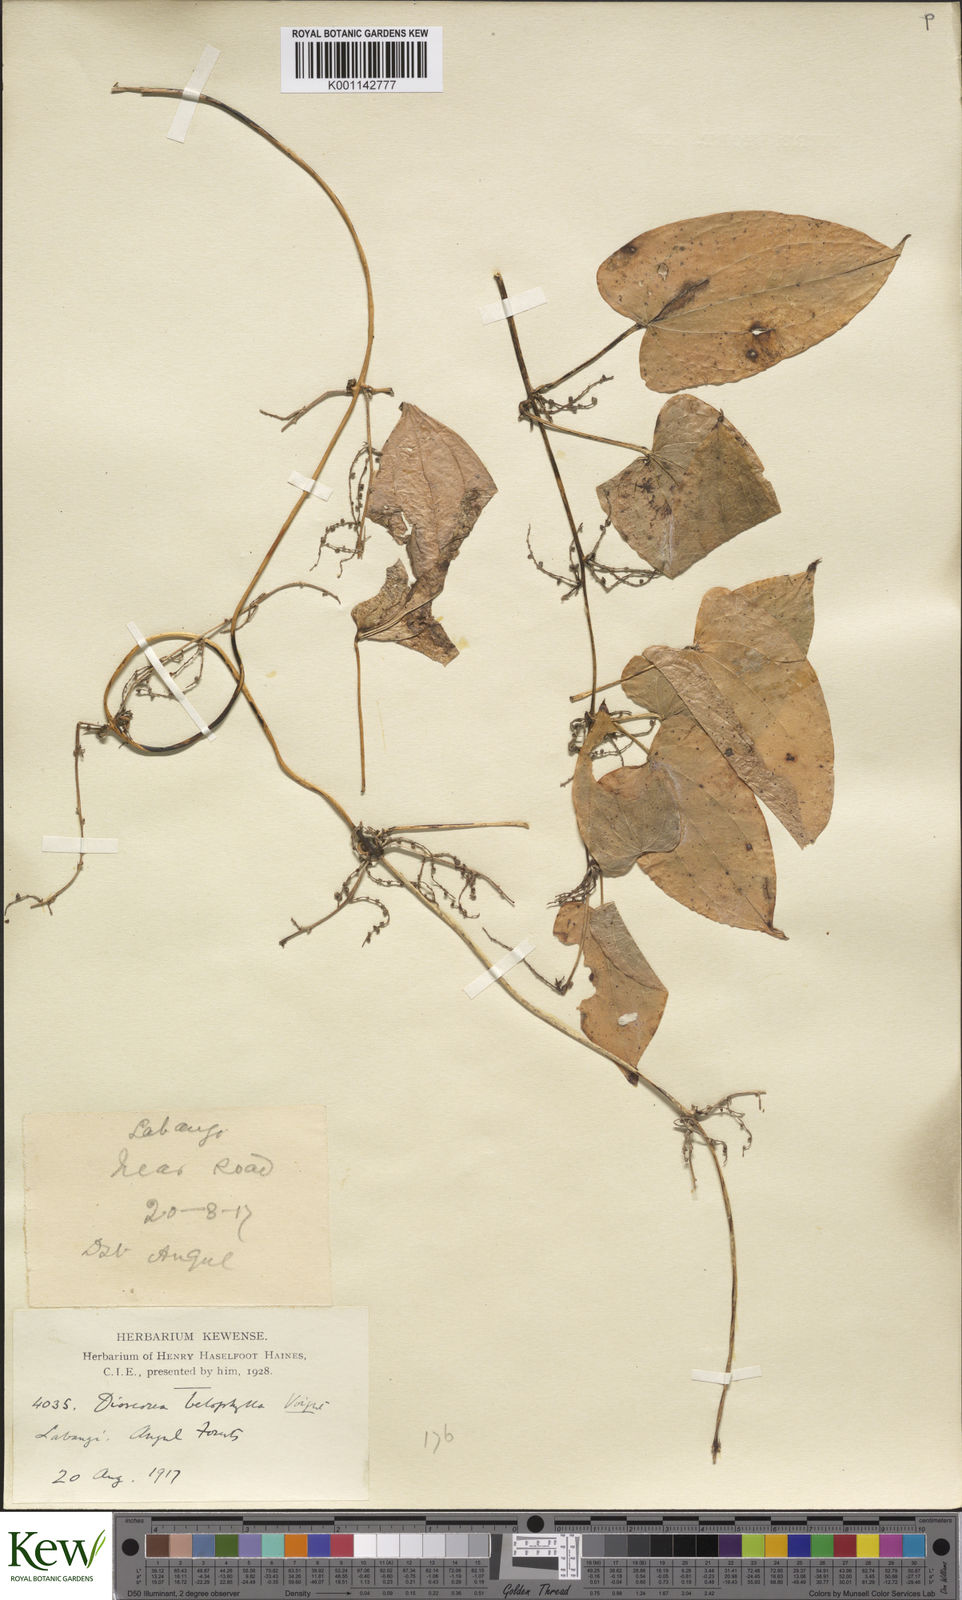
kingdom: Plantae
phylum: Tracheophyta
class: Liliopsida
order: Dioscoreales
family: Dioscoreaceae
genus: Dioscorea
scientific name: Dioscorea belophylla
